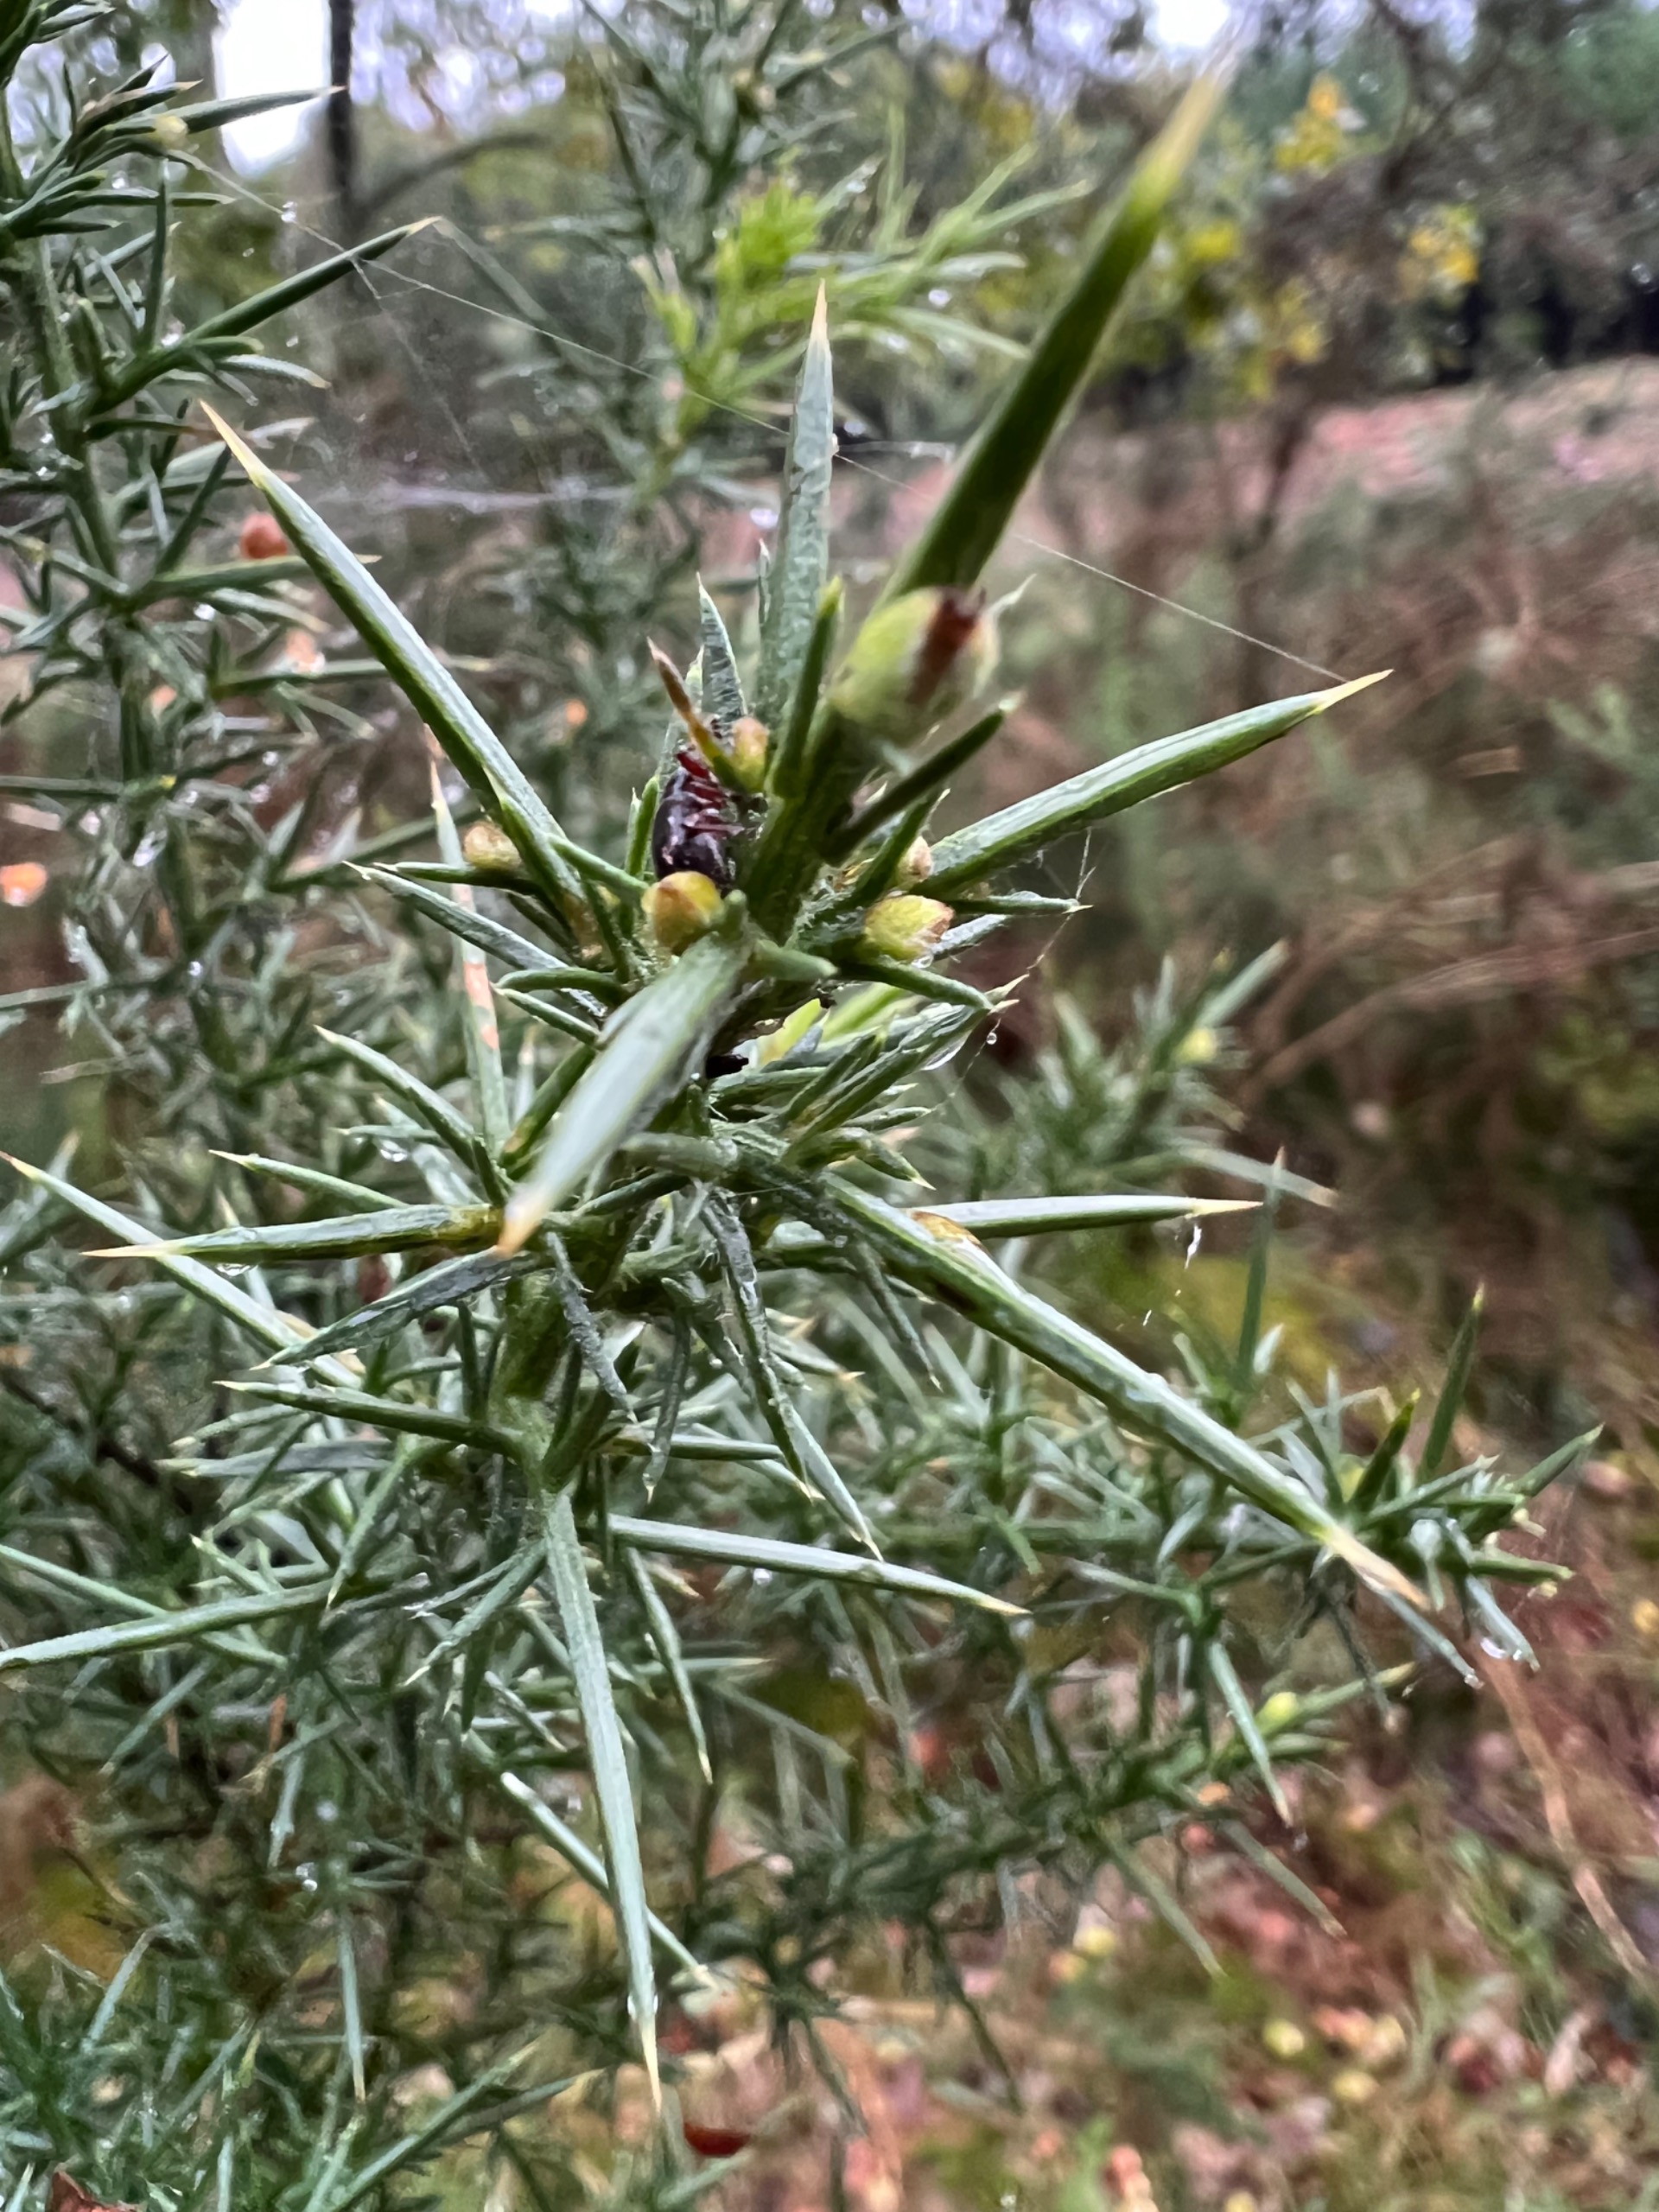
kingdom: Plantae
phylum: Tracheophyta
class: Magnoliopsida
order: Fabales
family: Fabaceae
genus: Ulex
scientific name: Ulex europaeus
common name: Tornblad
